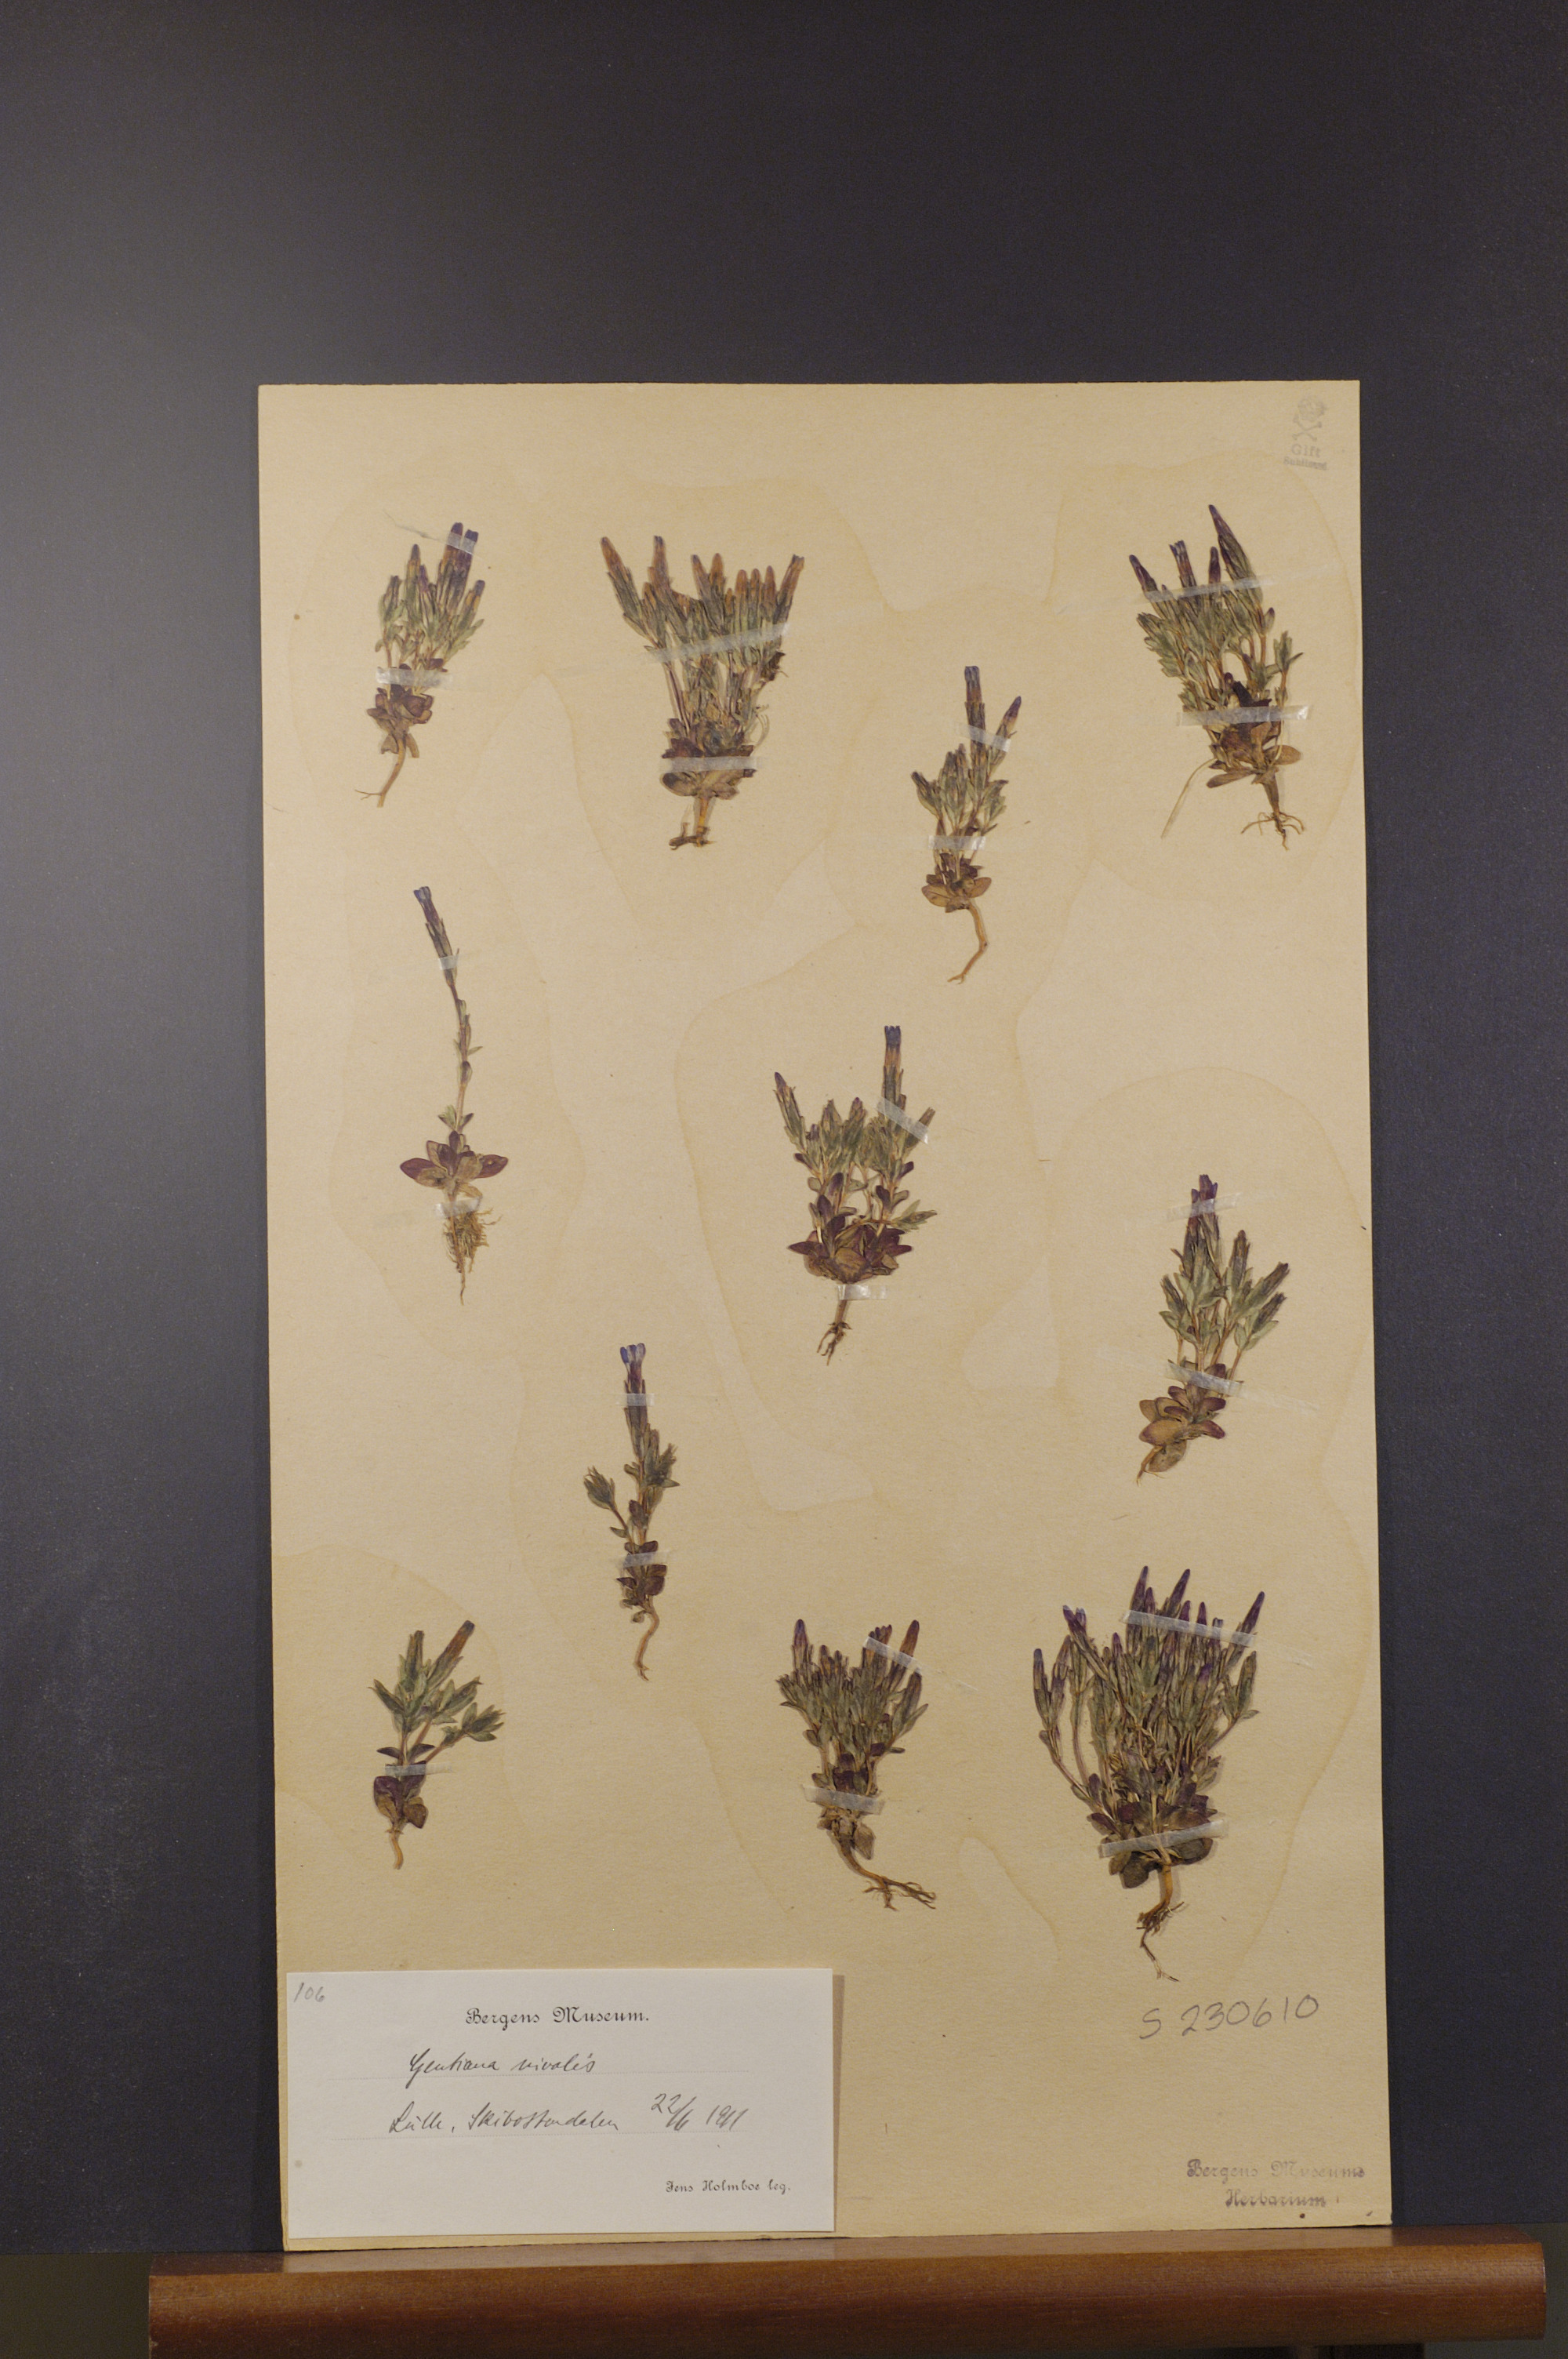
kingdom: Plantae
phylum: Tracheophyta
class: Magnoliopsida
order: Gentianales
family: Gentianaceae
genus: Gentiana
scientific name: Gentiana nivalis
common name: Alpine gentian
